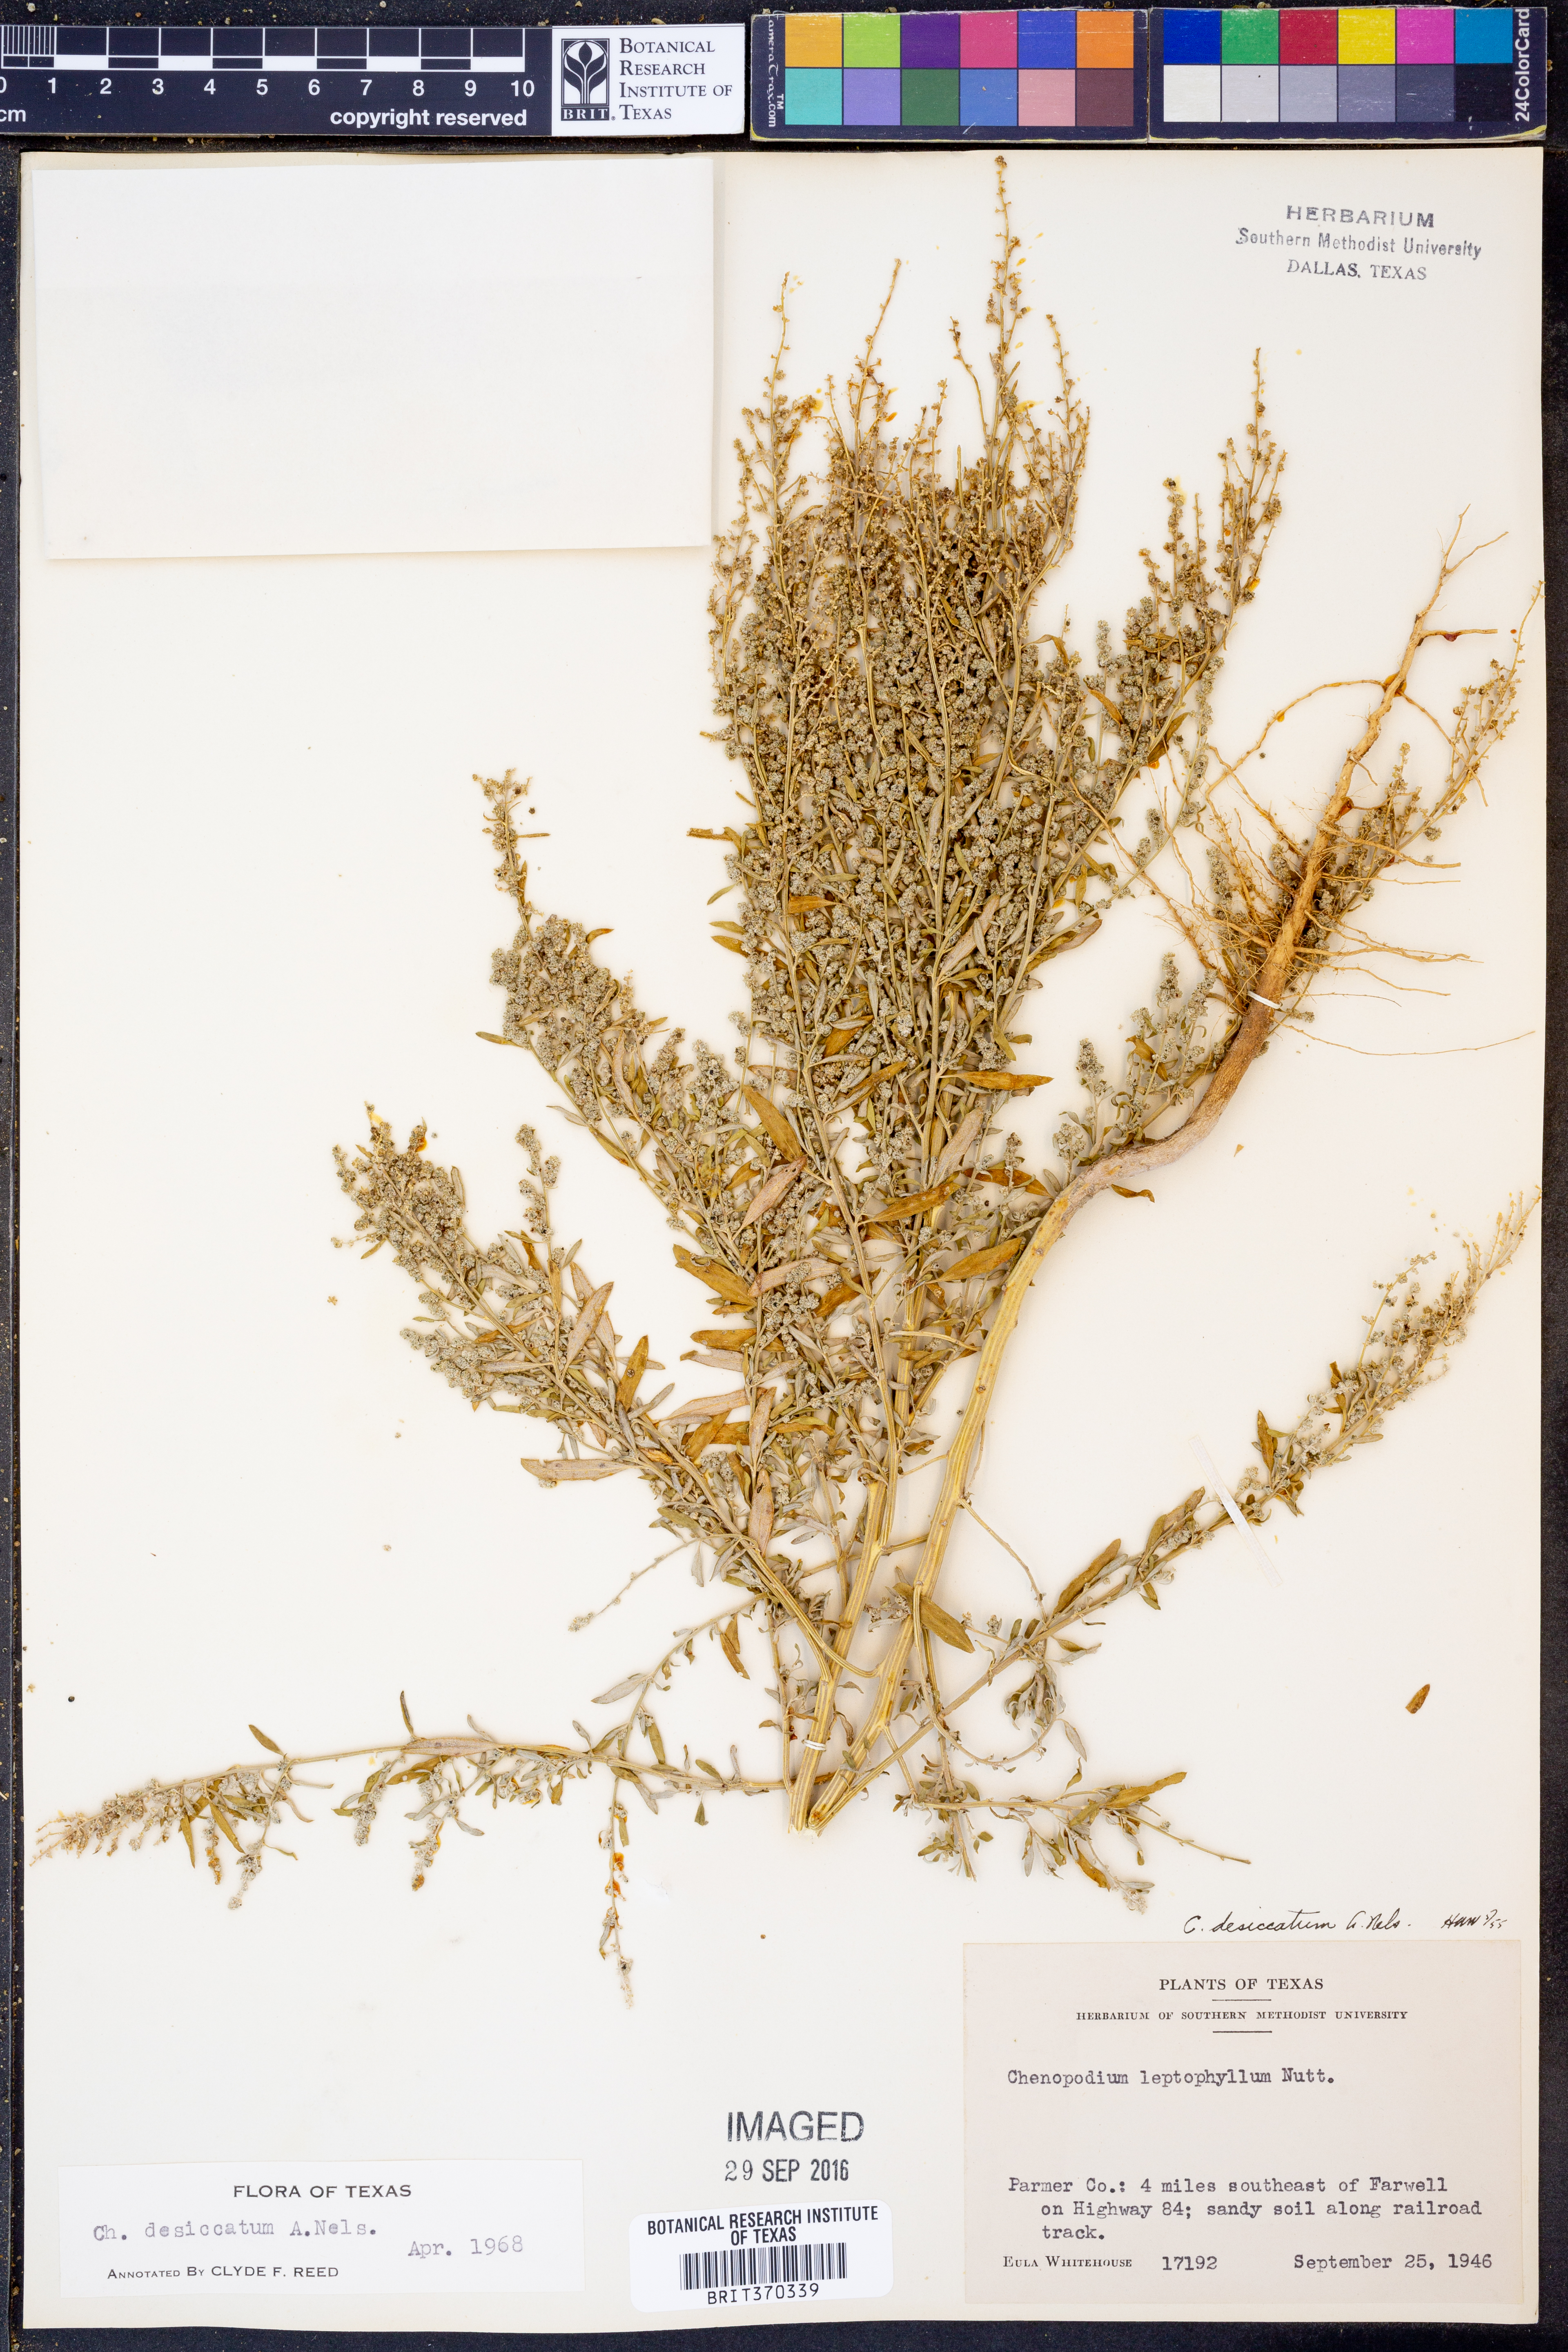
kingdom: Plantae
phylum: Tracheophyta
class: Magnoliopsida
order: Caryophyllales
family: Amaranthaceae
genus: Chenopodium
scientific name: Chenopodium desiccatum
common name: Slimleaf goosefoot
